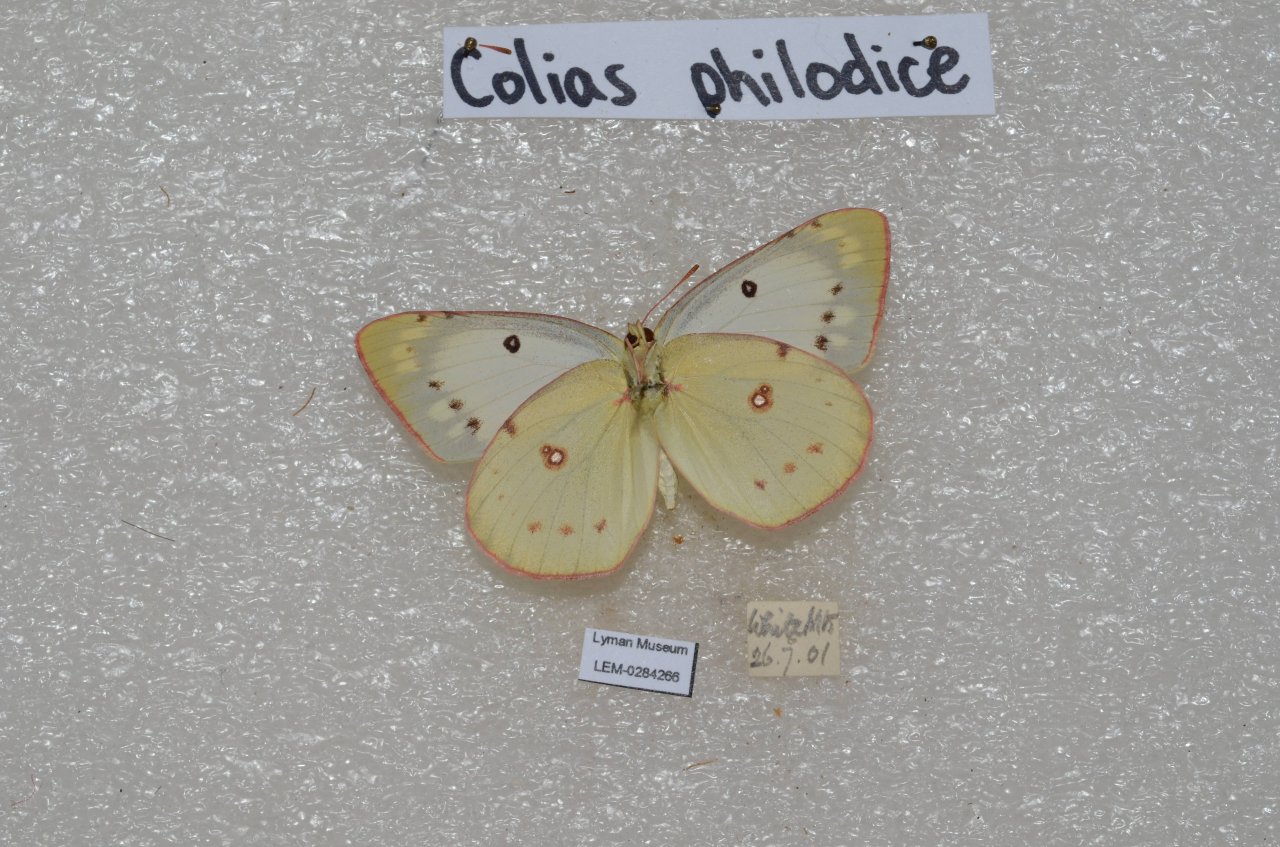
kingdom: Animalia
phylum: Arthropoda
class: Insecta
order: Lepidoptera
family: Pieridae
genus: Colias
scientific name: Colias philodice
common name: Clouded Sulphur
